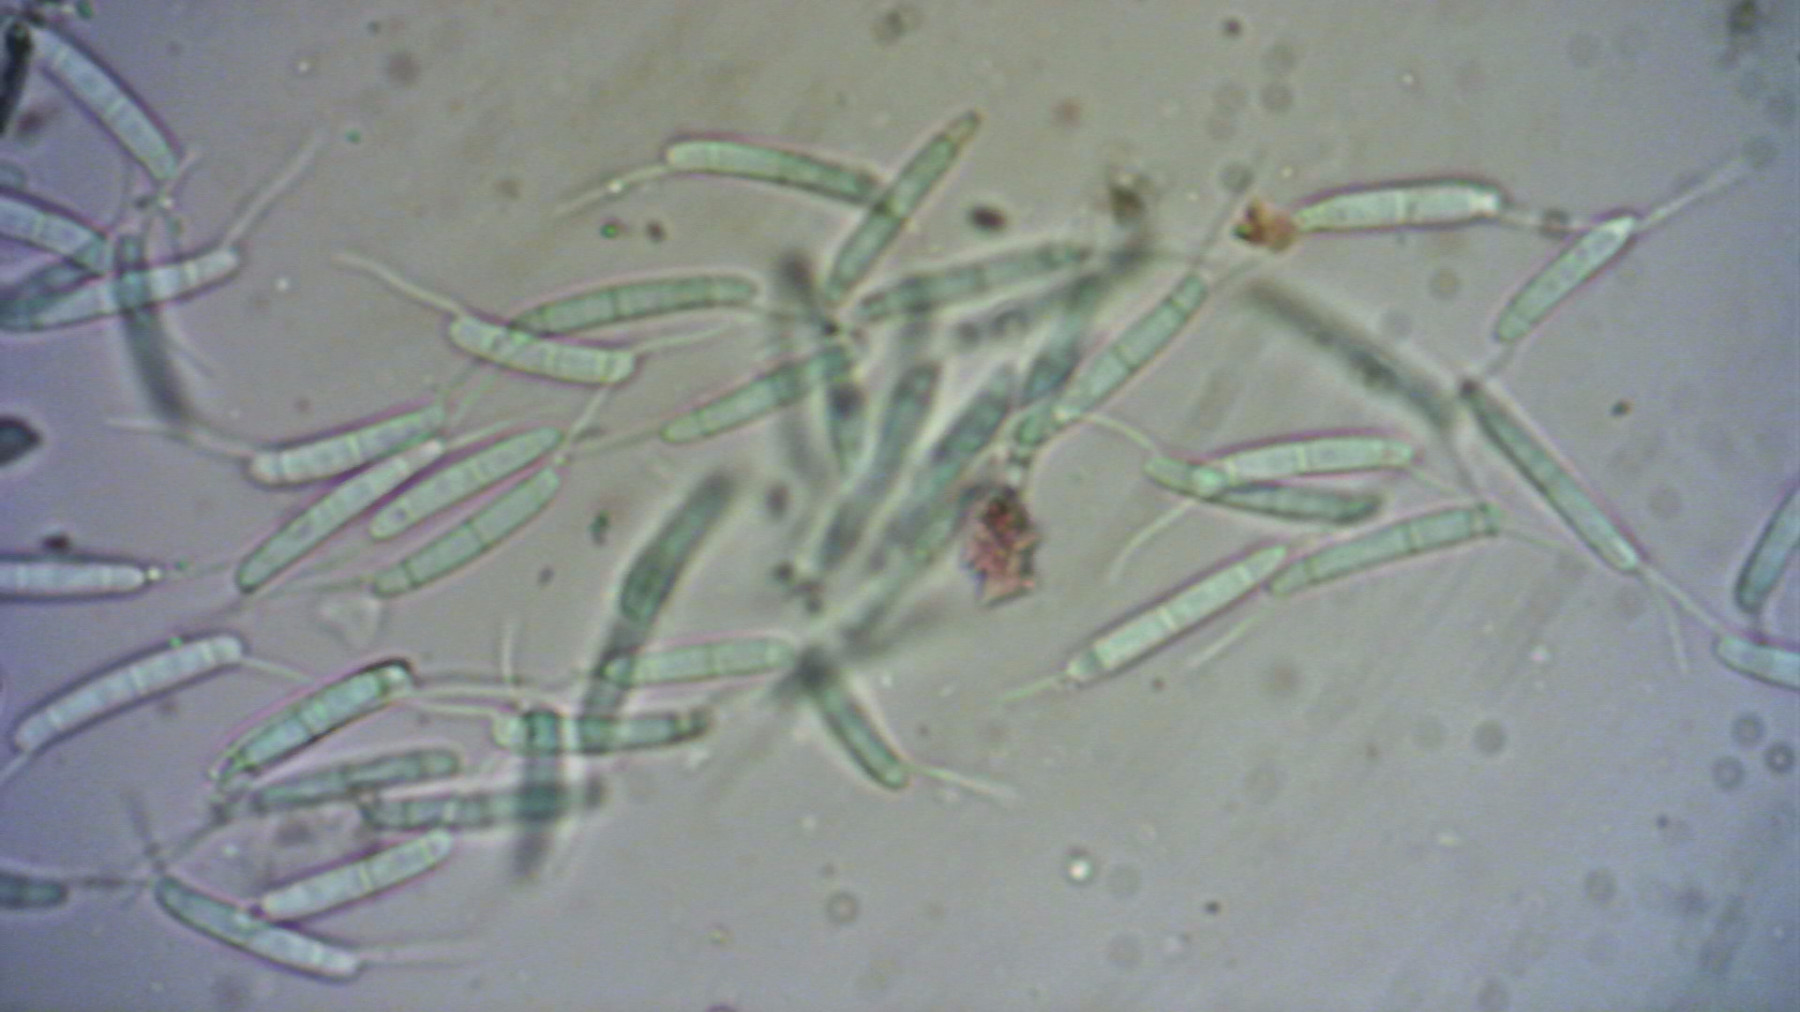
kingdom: Fungi
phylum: Ascomycota
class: Sordariomycetes
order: Amphisphaeriales
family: Discosiaceae
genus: Discosia
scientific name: Discosia
